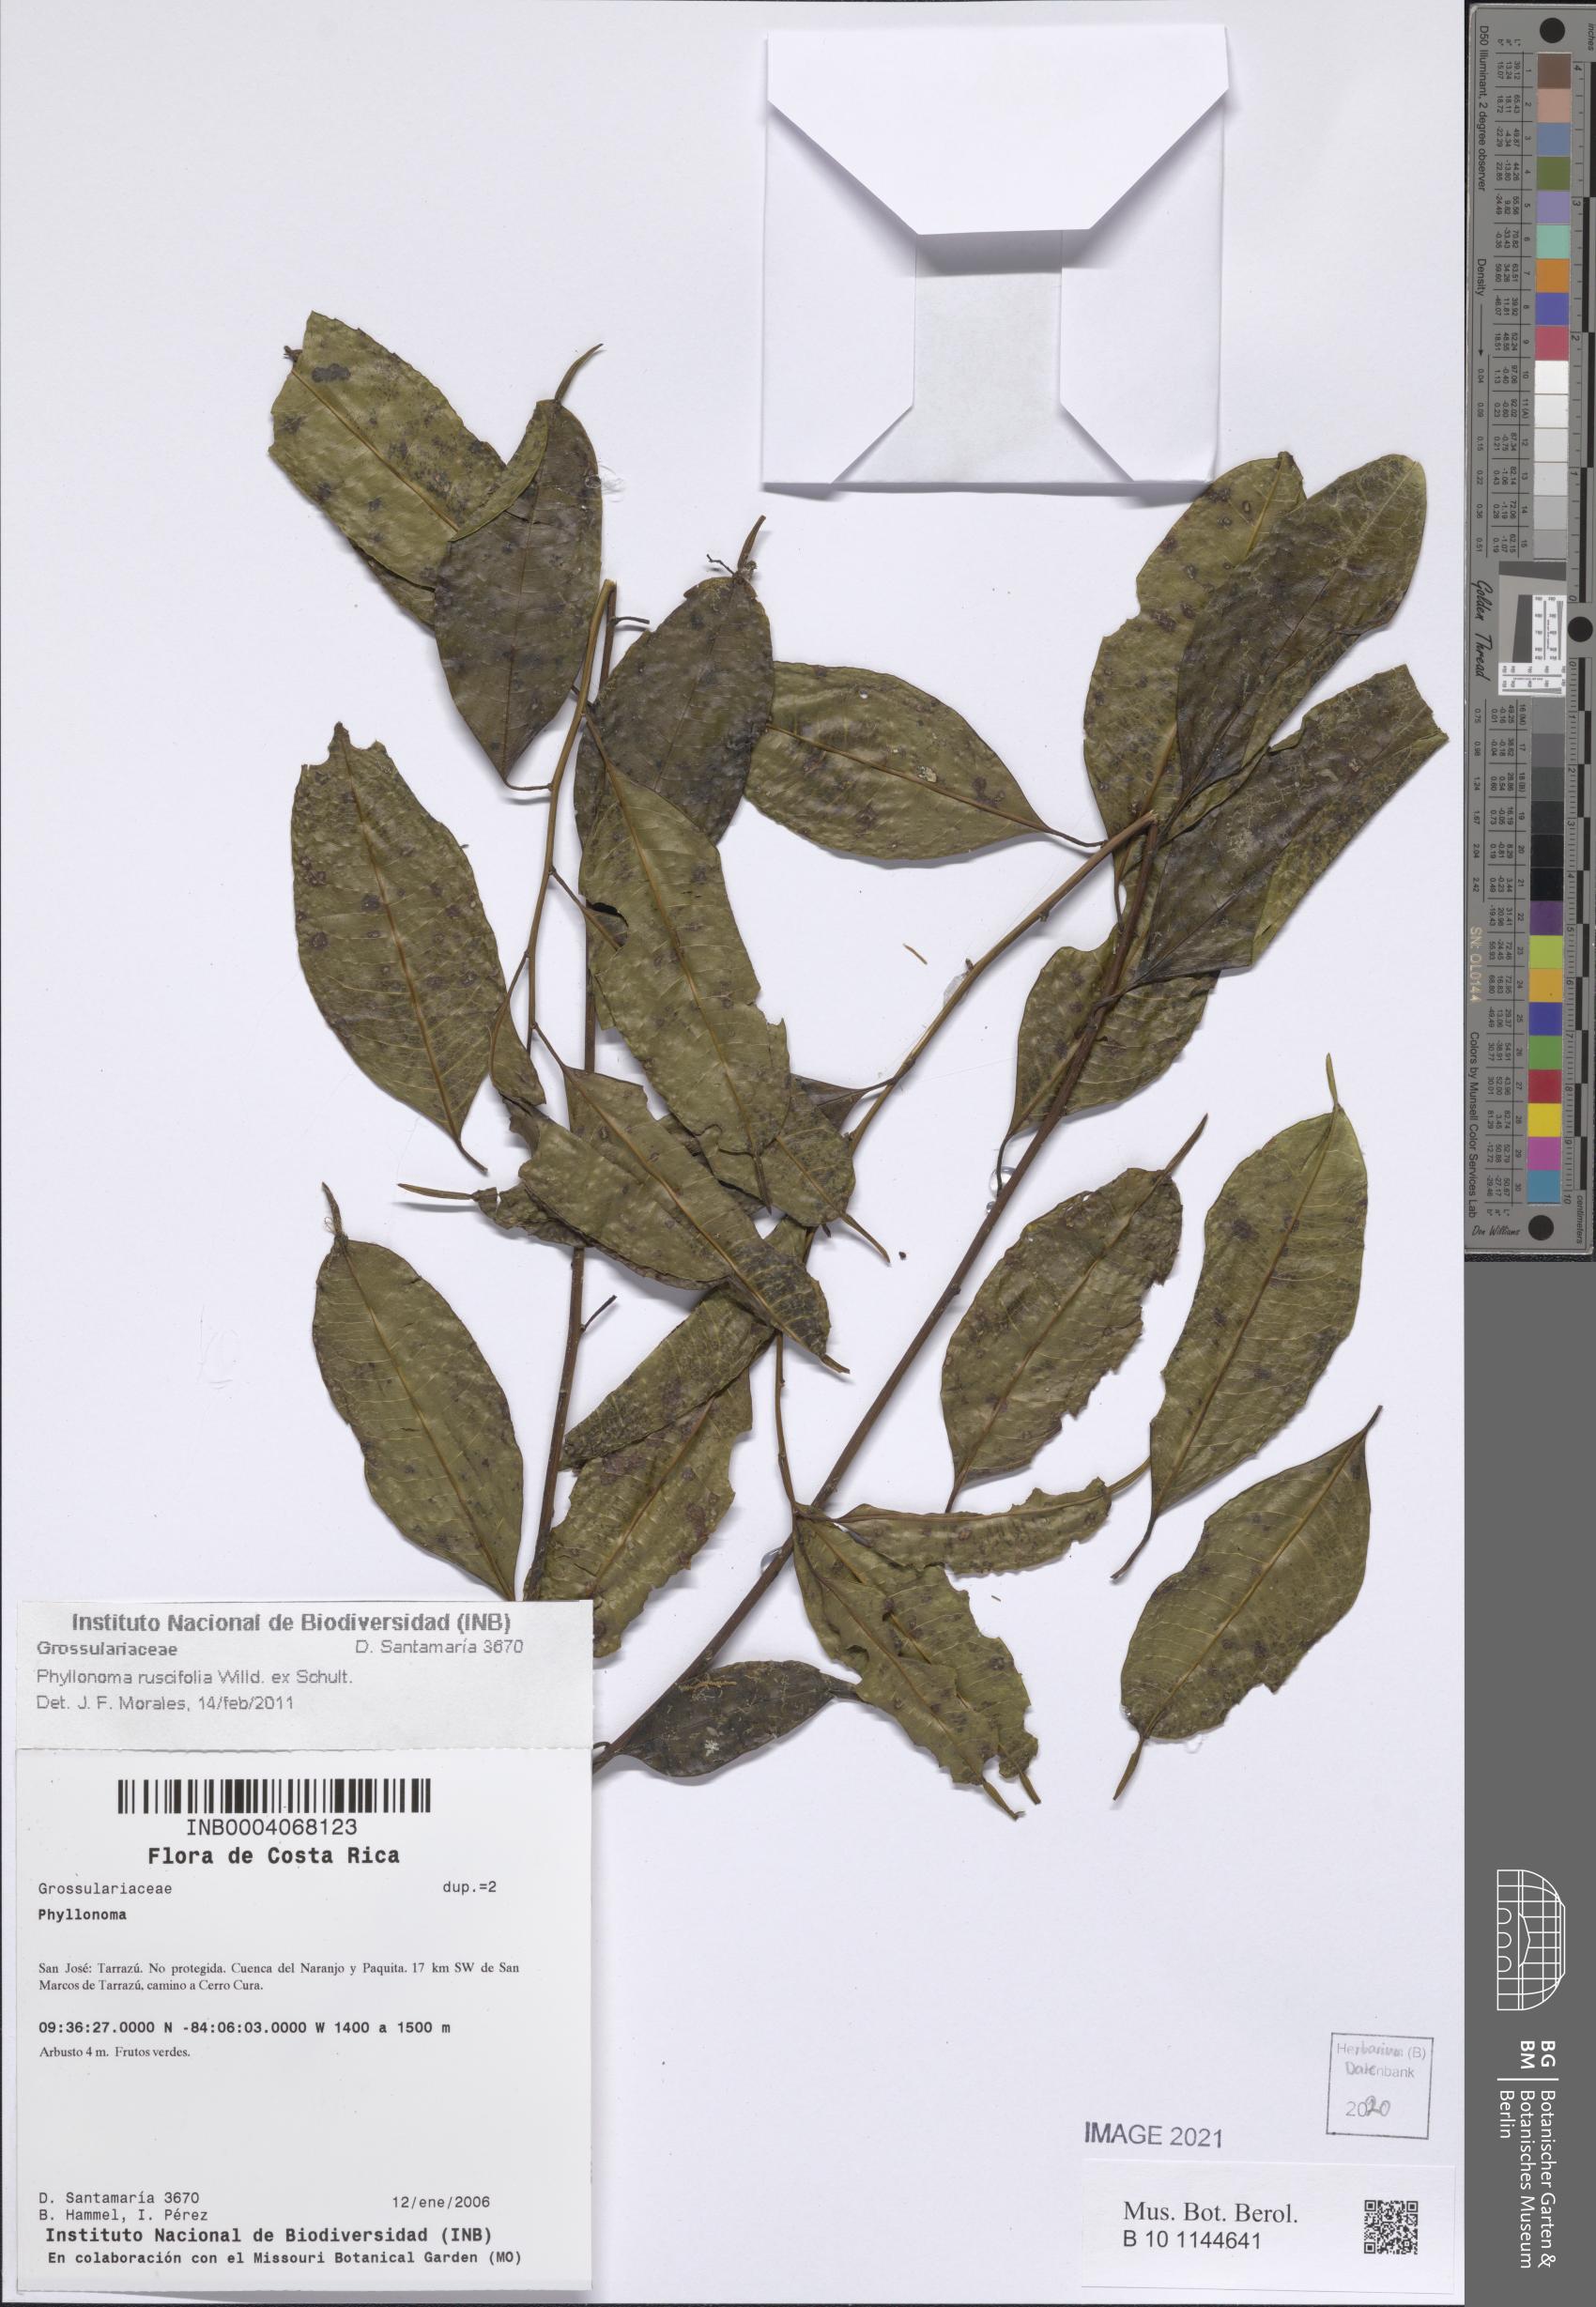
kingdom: Plantae
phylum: Tracheophyta
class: Magnoliopsida
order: Aquifoliales
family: Phyllonomaceae
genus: Phyllonoma
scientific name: Phyllonoma ruscifolia
